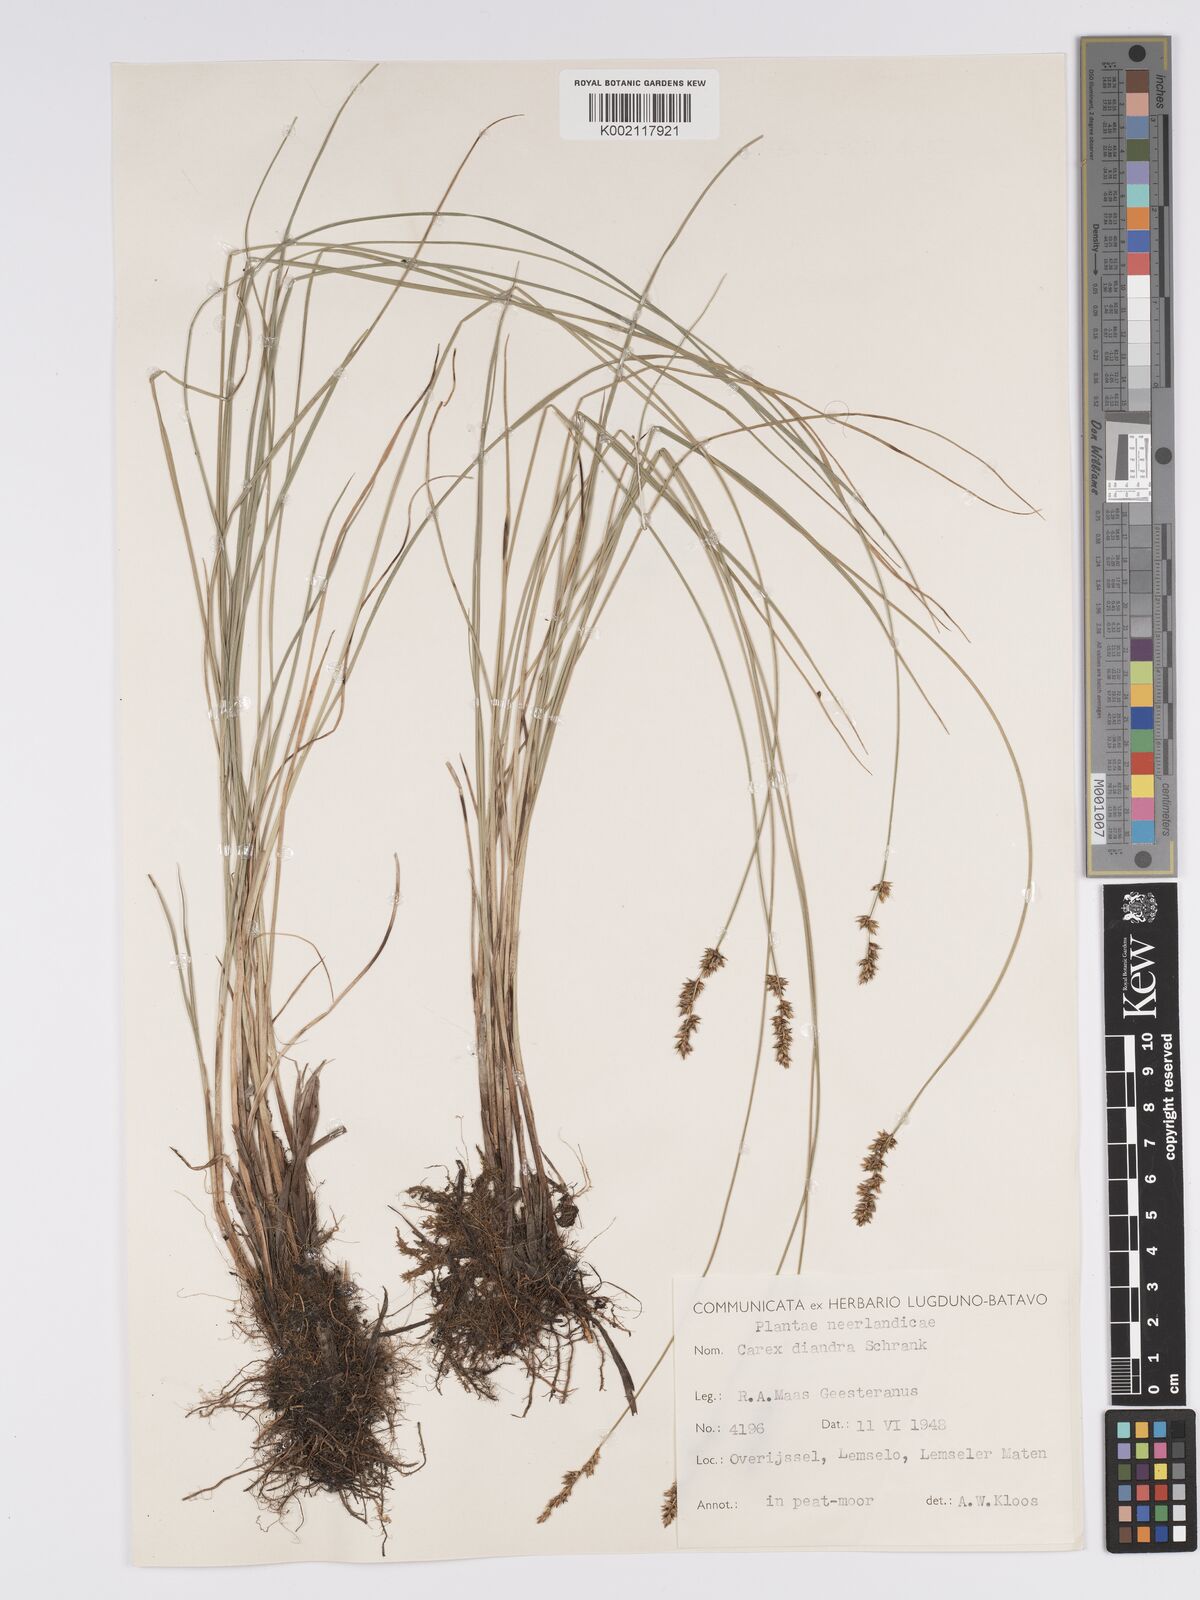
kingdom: Plantae
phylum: Tracheophyta
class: Liliopsida
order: Poales
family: Cyperaceae
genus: Carex
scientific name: Carex diandra
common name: Lesser tussock-sedge
